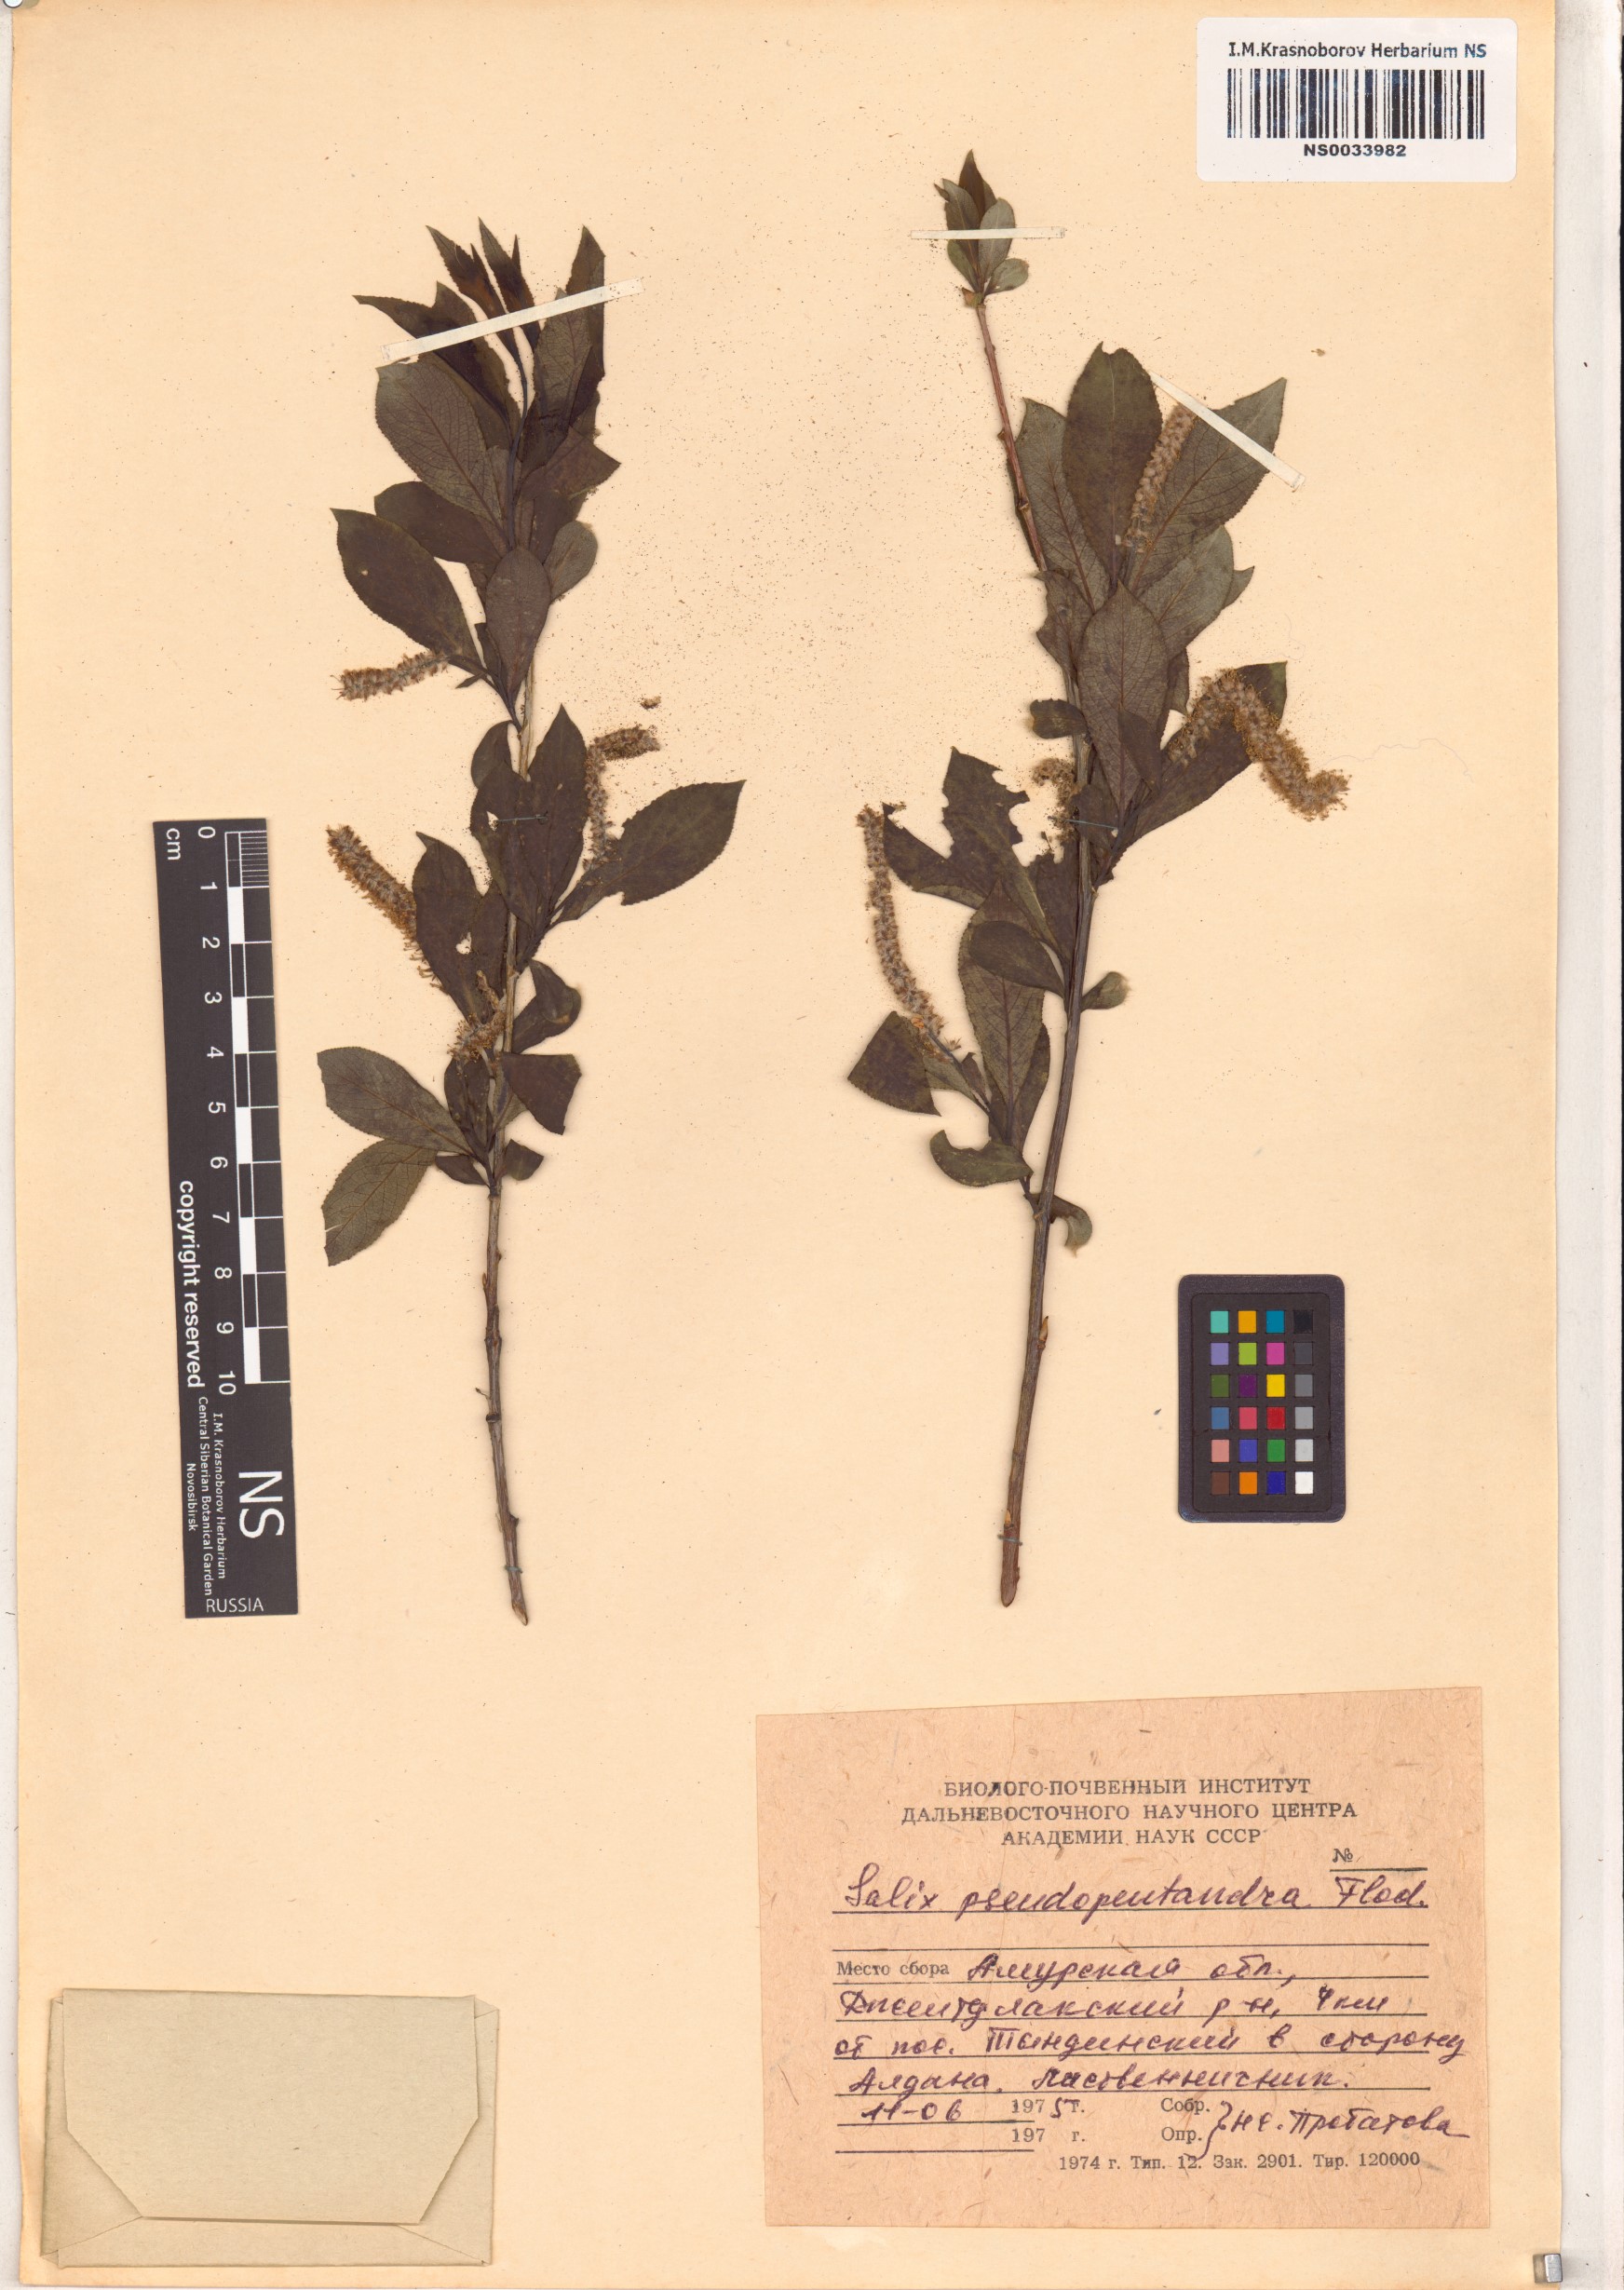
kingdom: Plantae
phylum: Tracheophyta
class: Magnoliopsida
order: Malpighiales
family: Salicaceae
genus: Salix
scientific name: Salix pseudopentandra
